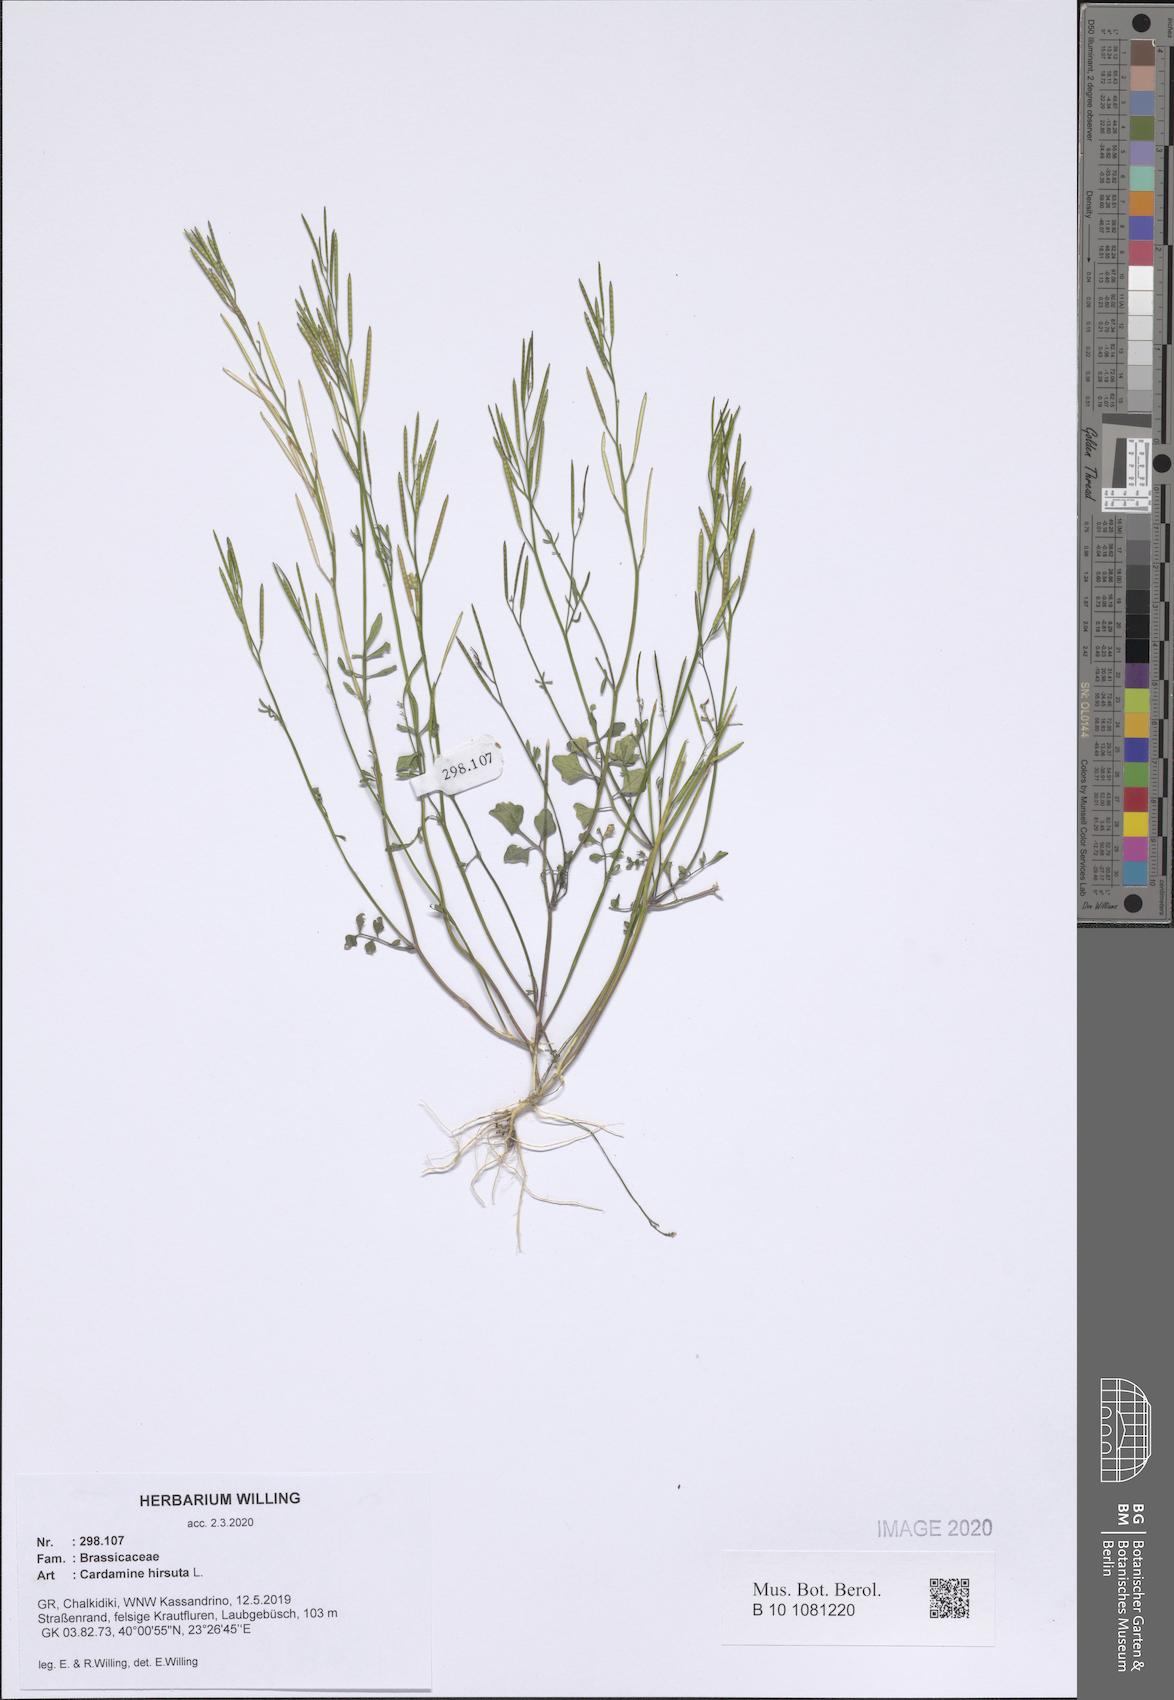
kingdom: Plantae
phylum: Tracheophyta
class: Magnoliopsida
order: Brassicales
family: Brassicaceae
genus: Cardamine
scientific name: Cardamine hirsuta
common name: Hairy bittercress
